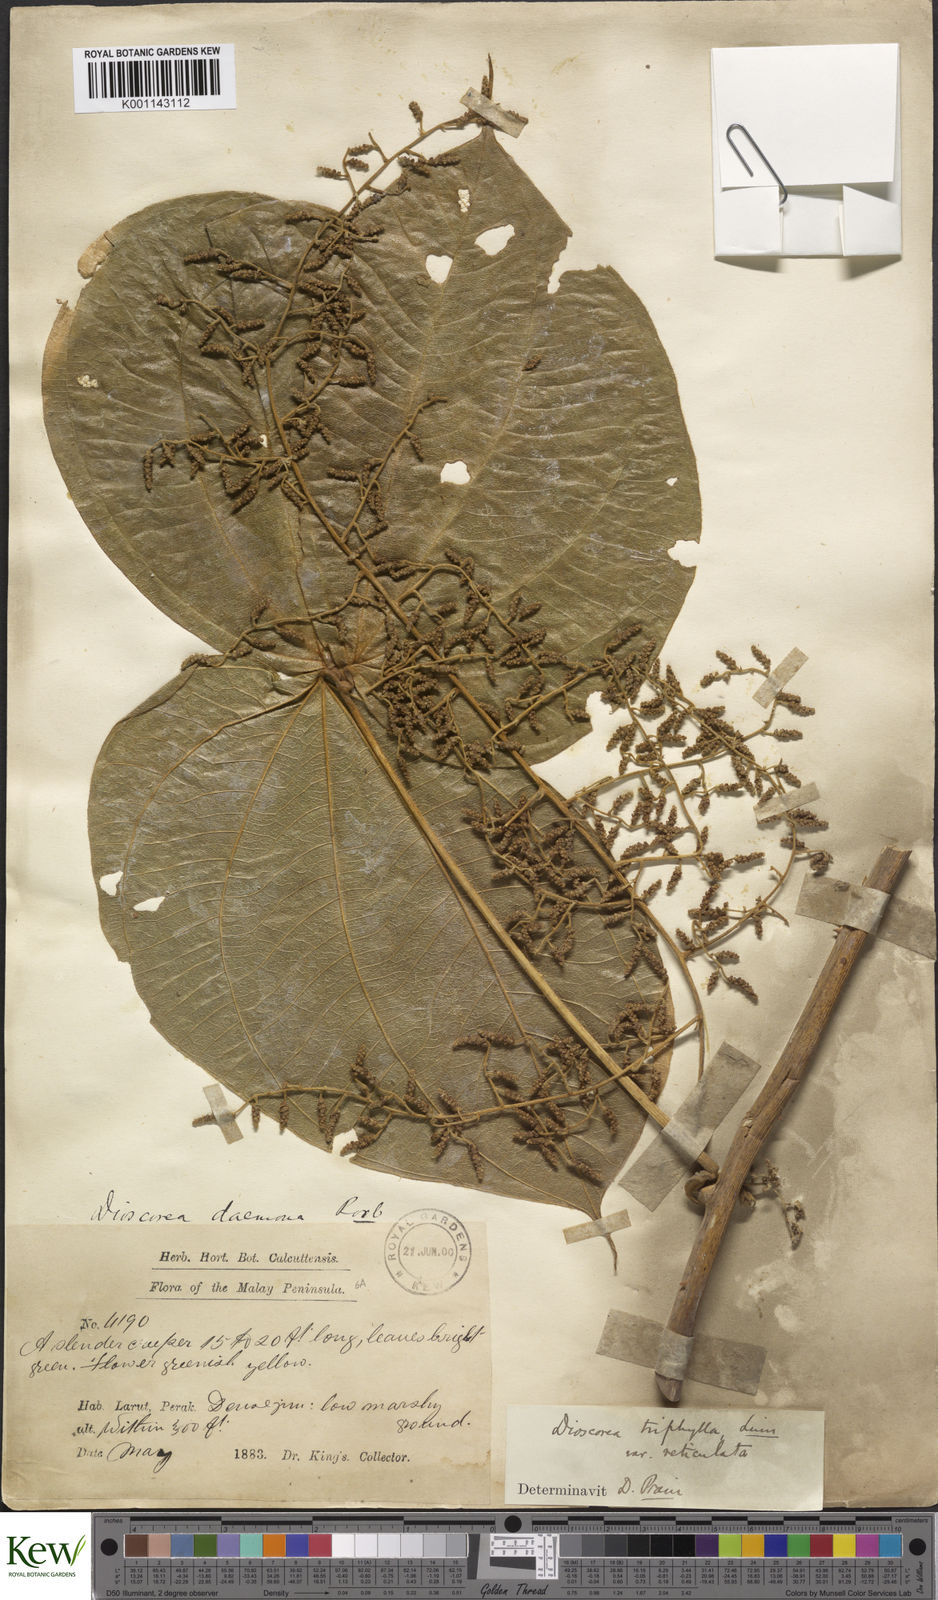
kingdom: Plantae
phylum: Tracheophyta
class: Liliopsida
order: Dioscoreales
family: Dioscoreaceae
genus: Dioscorea
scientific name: Dioscorea pentaphylla
